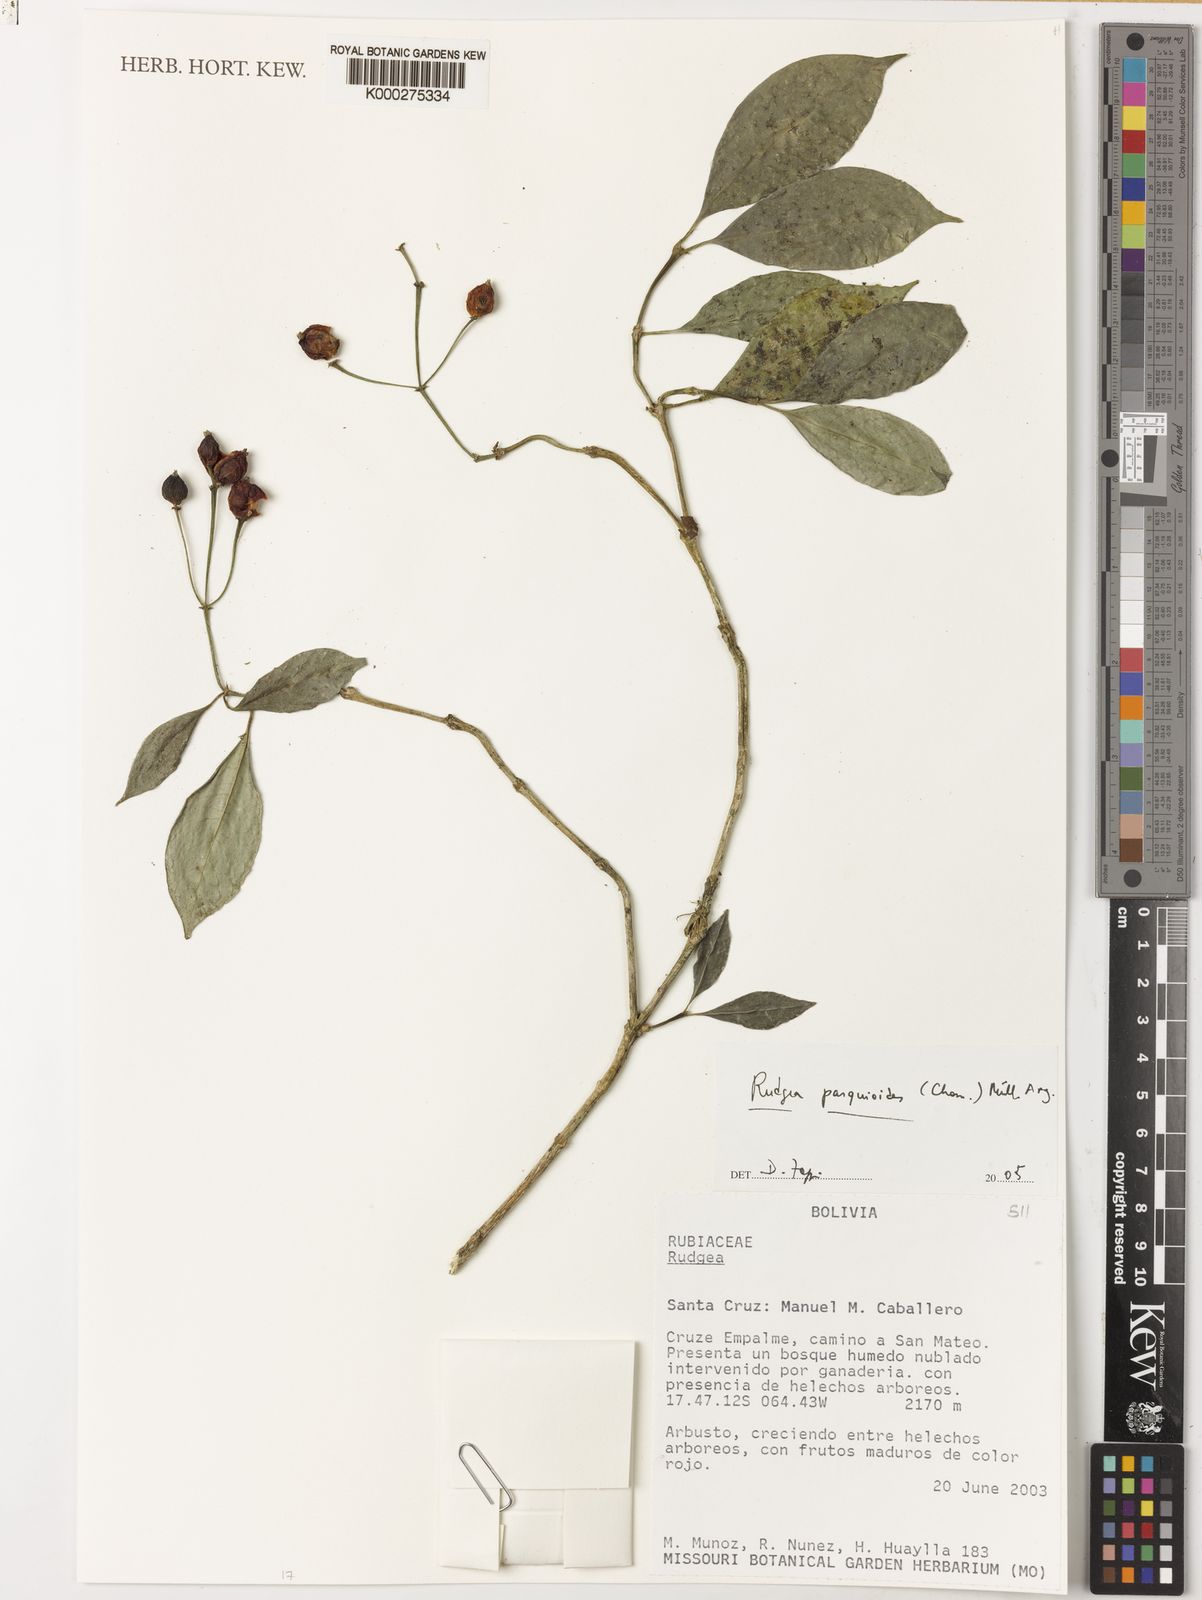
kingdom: Plantae
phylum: Tracheophyta
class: Magnoliopsida
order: Gentianales
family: Rubiaceae
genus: Rudgea
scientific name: Rudgea parquioides
